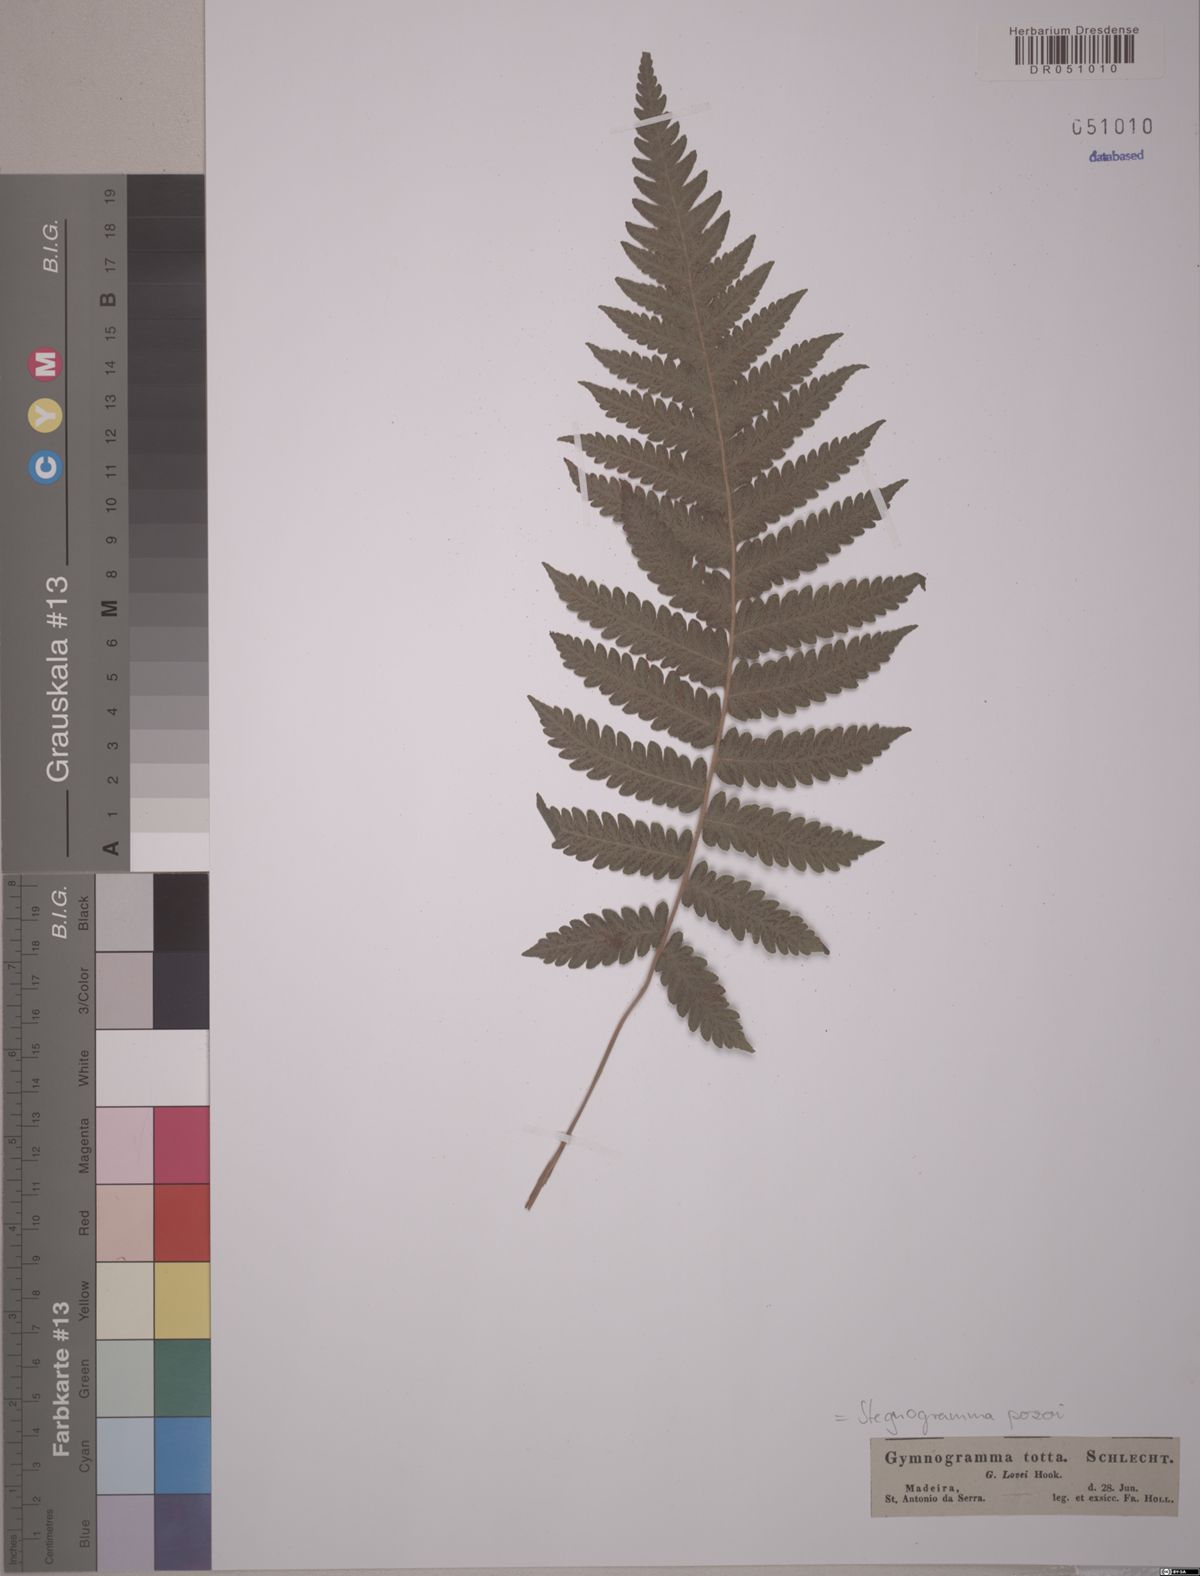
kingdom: Plantae
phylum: Tracheophyta
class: Polypodiopsida
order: Polypodiales
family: Thelypteridaceae
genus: Leptogramma
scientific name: Leptogramma pozoi
